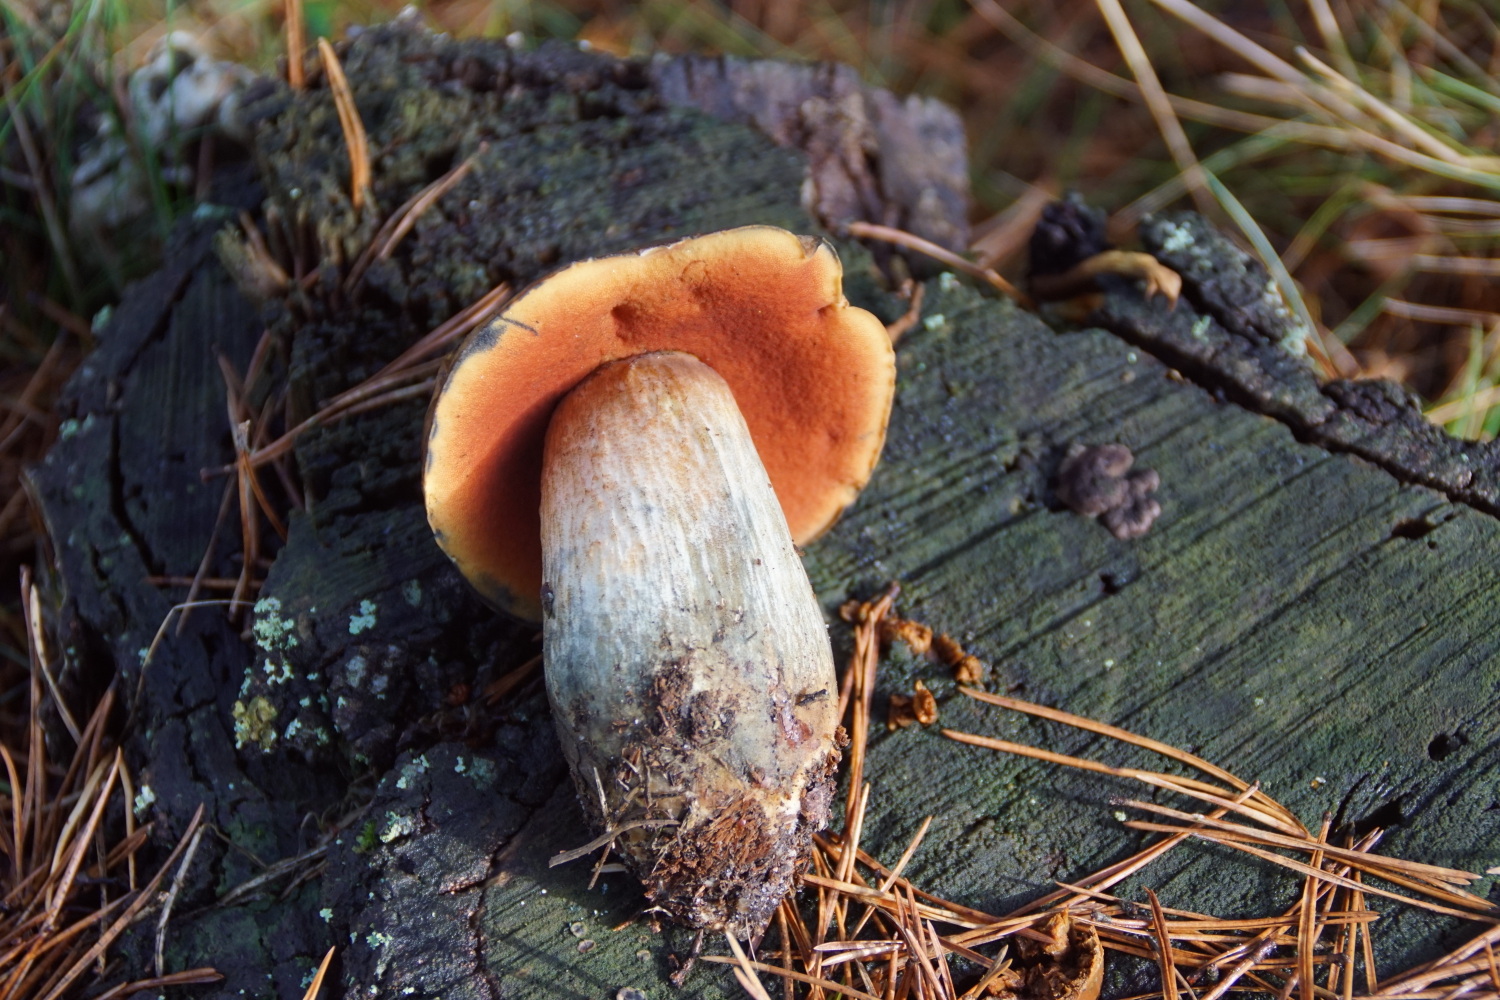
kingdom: Fungi
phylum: Basidiomycota
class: Agaricomycetes
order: Boletales
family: Boletaceae
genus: Neoboletus
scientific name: Neoboletus erythropus
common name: punktstokket indigorørhat
